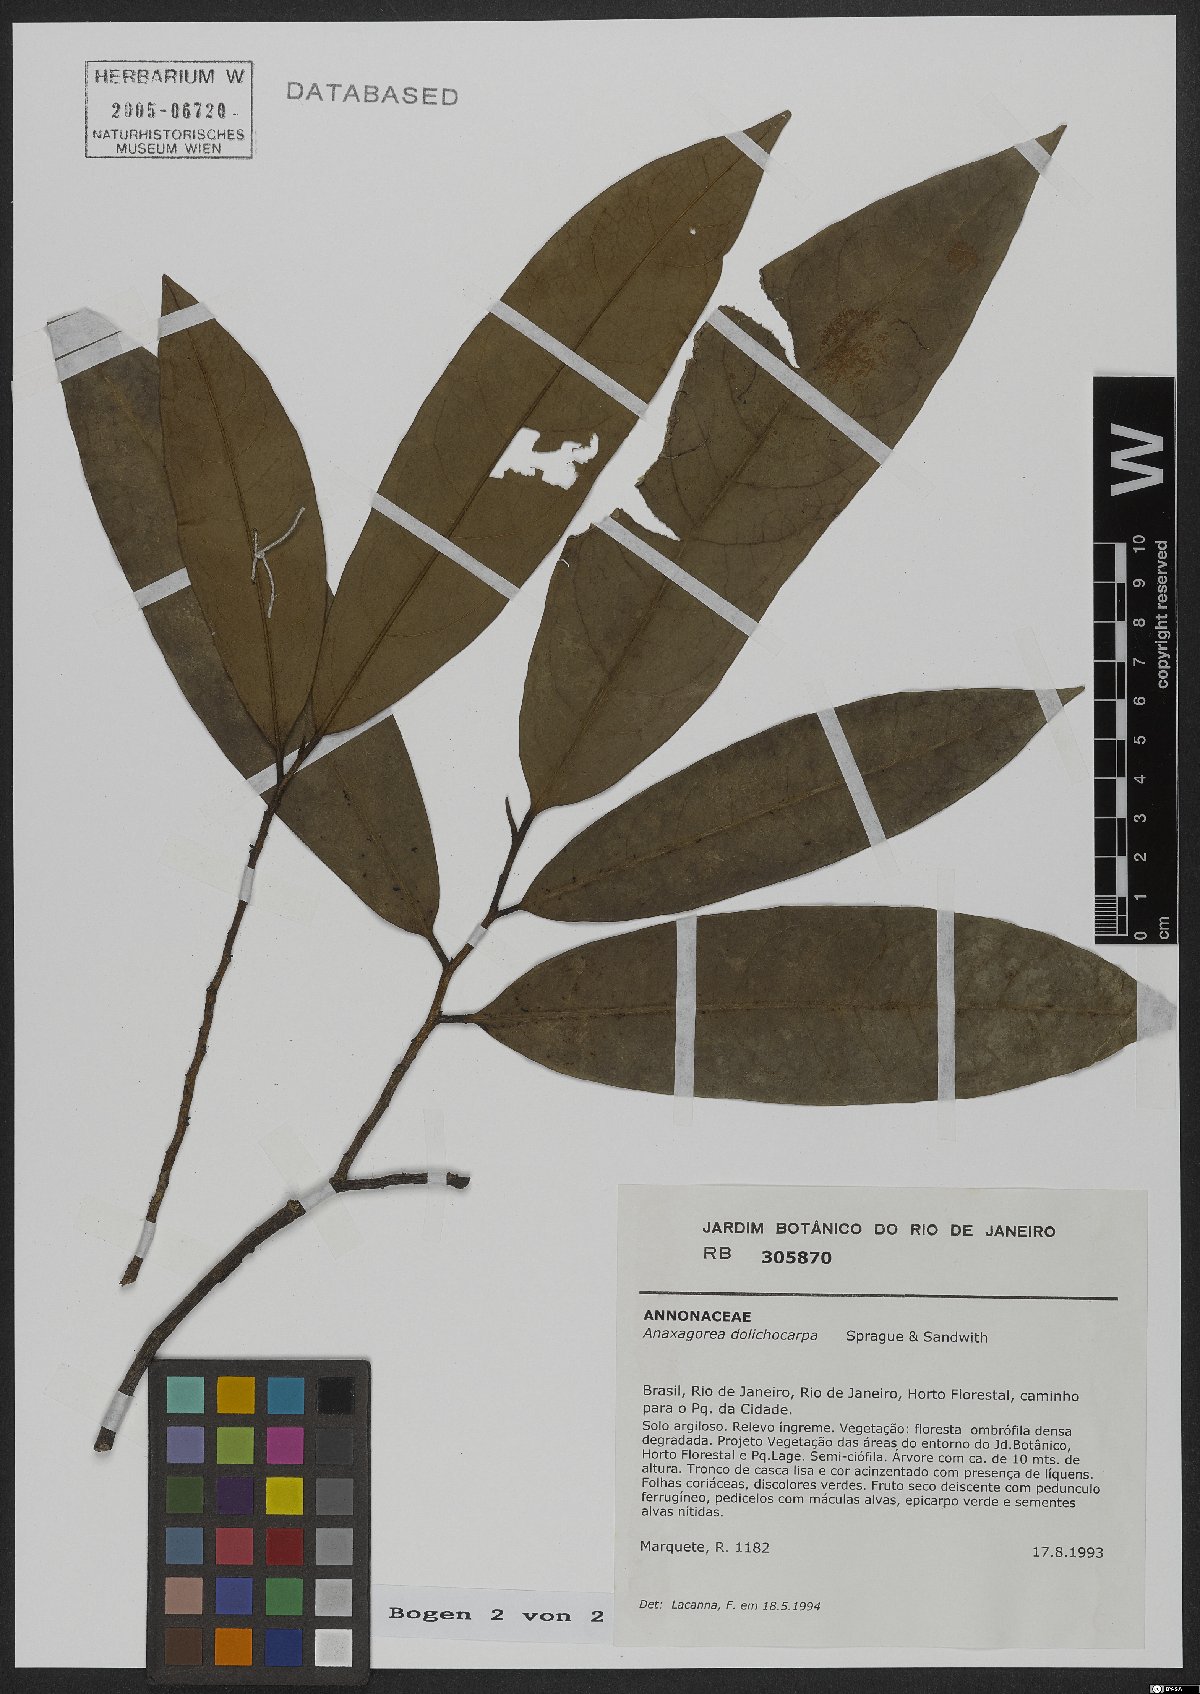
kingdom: Plantae
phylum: Tracheophyta
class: Magnoliopsida
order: Magnoliales
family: Annonaceae
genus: Anaxagorea
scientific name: Anaxagorea dolichocarpa
